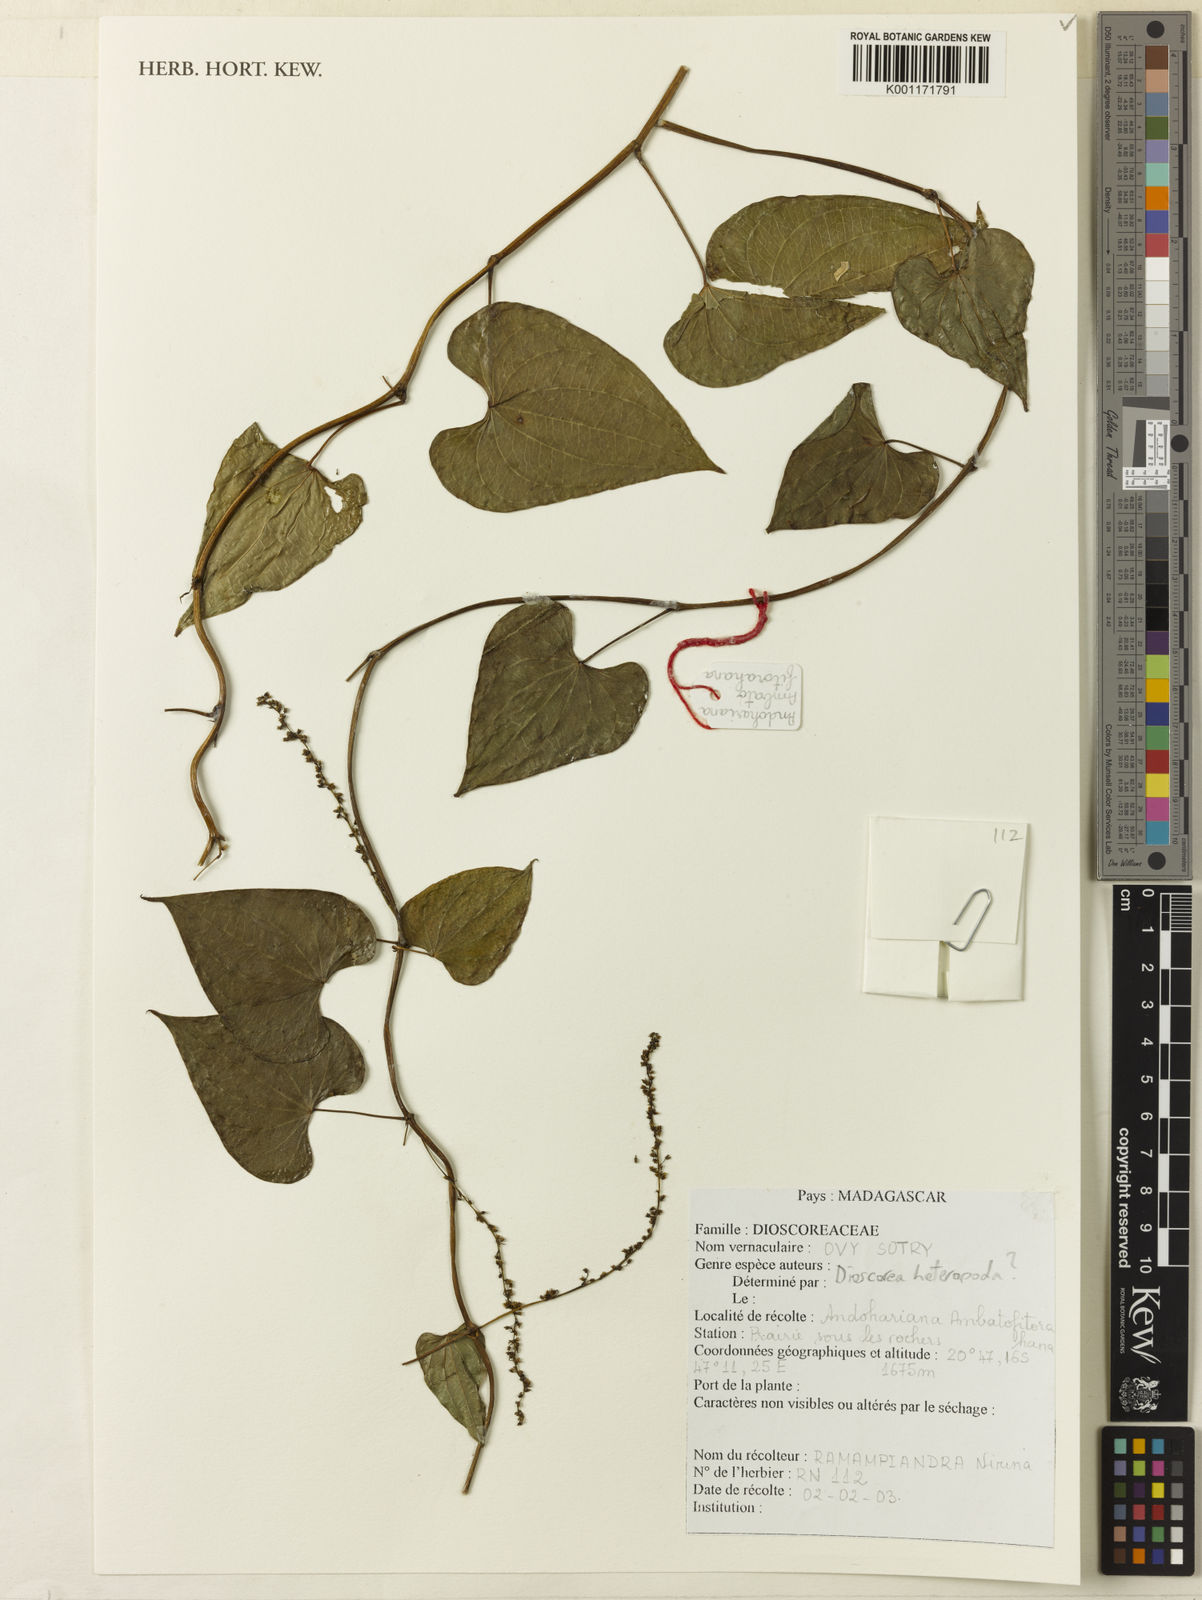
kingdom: Plantae
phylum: Tracheophyta
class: Liliopsida
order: Dioscoreales
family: Dioscoreaceae
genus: Dioscorea
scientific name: Dioscorea heteropoda
